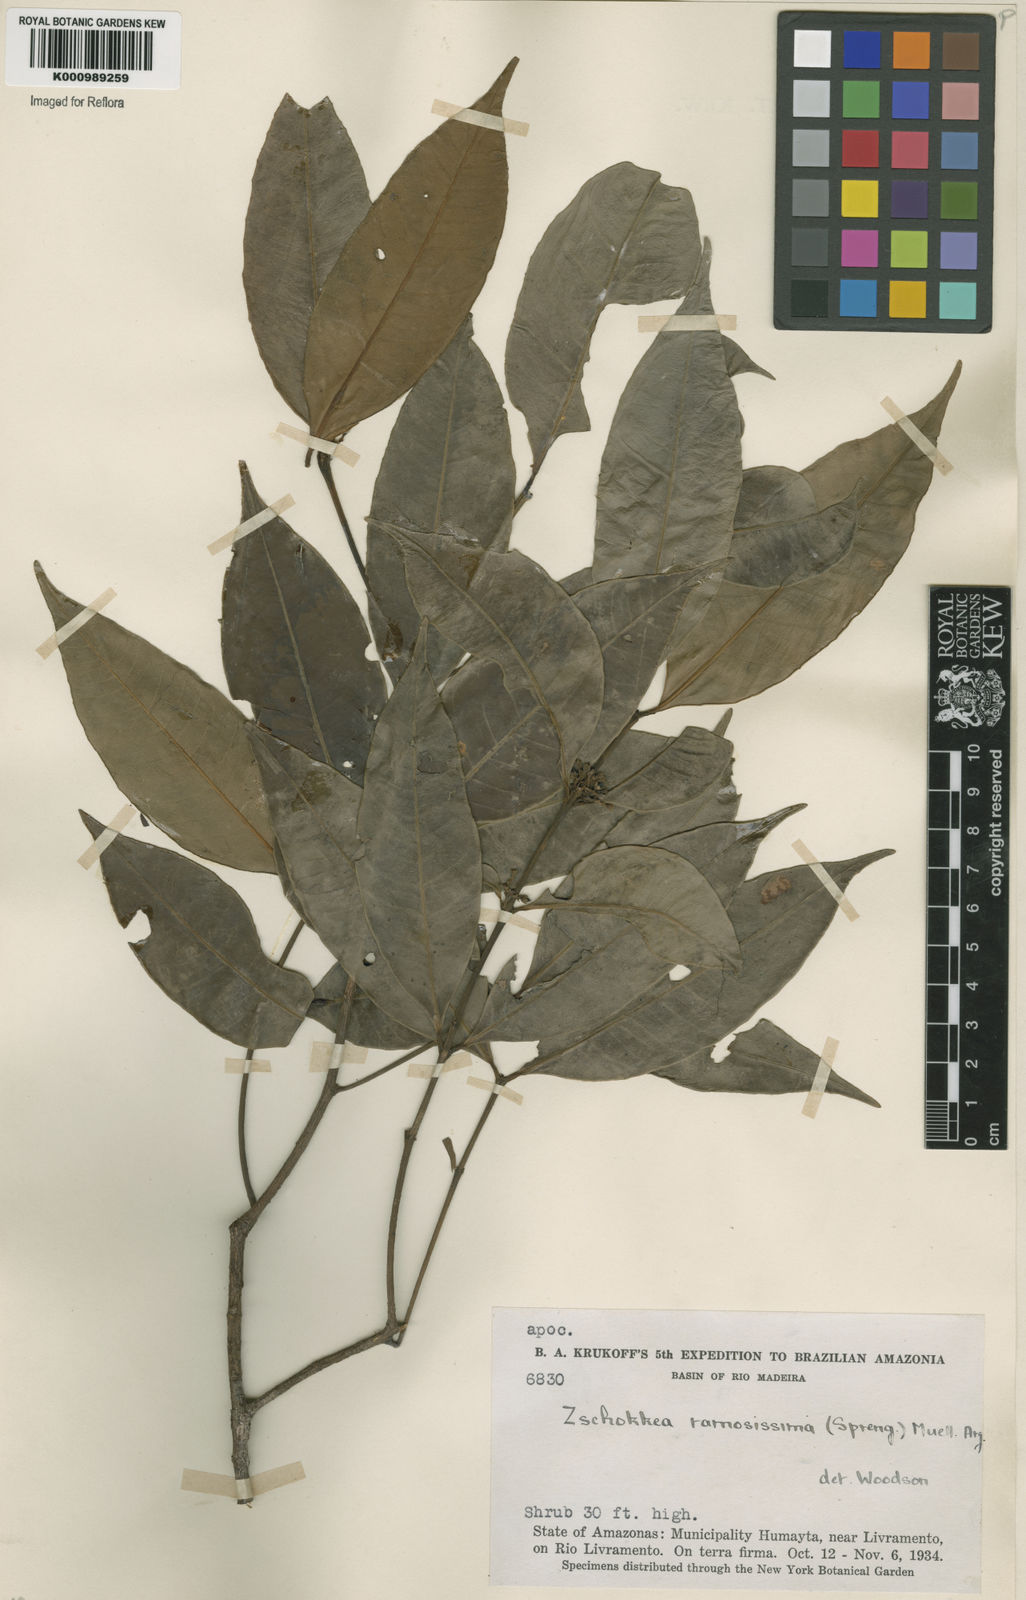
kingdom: Plantae
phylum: Tracheophyta
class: Magnoliopsida
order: Gentianales
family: Apocynaceae
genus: Lacmellea
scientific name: Lacmellea
